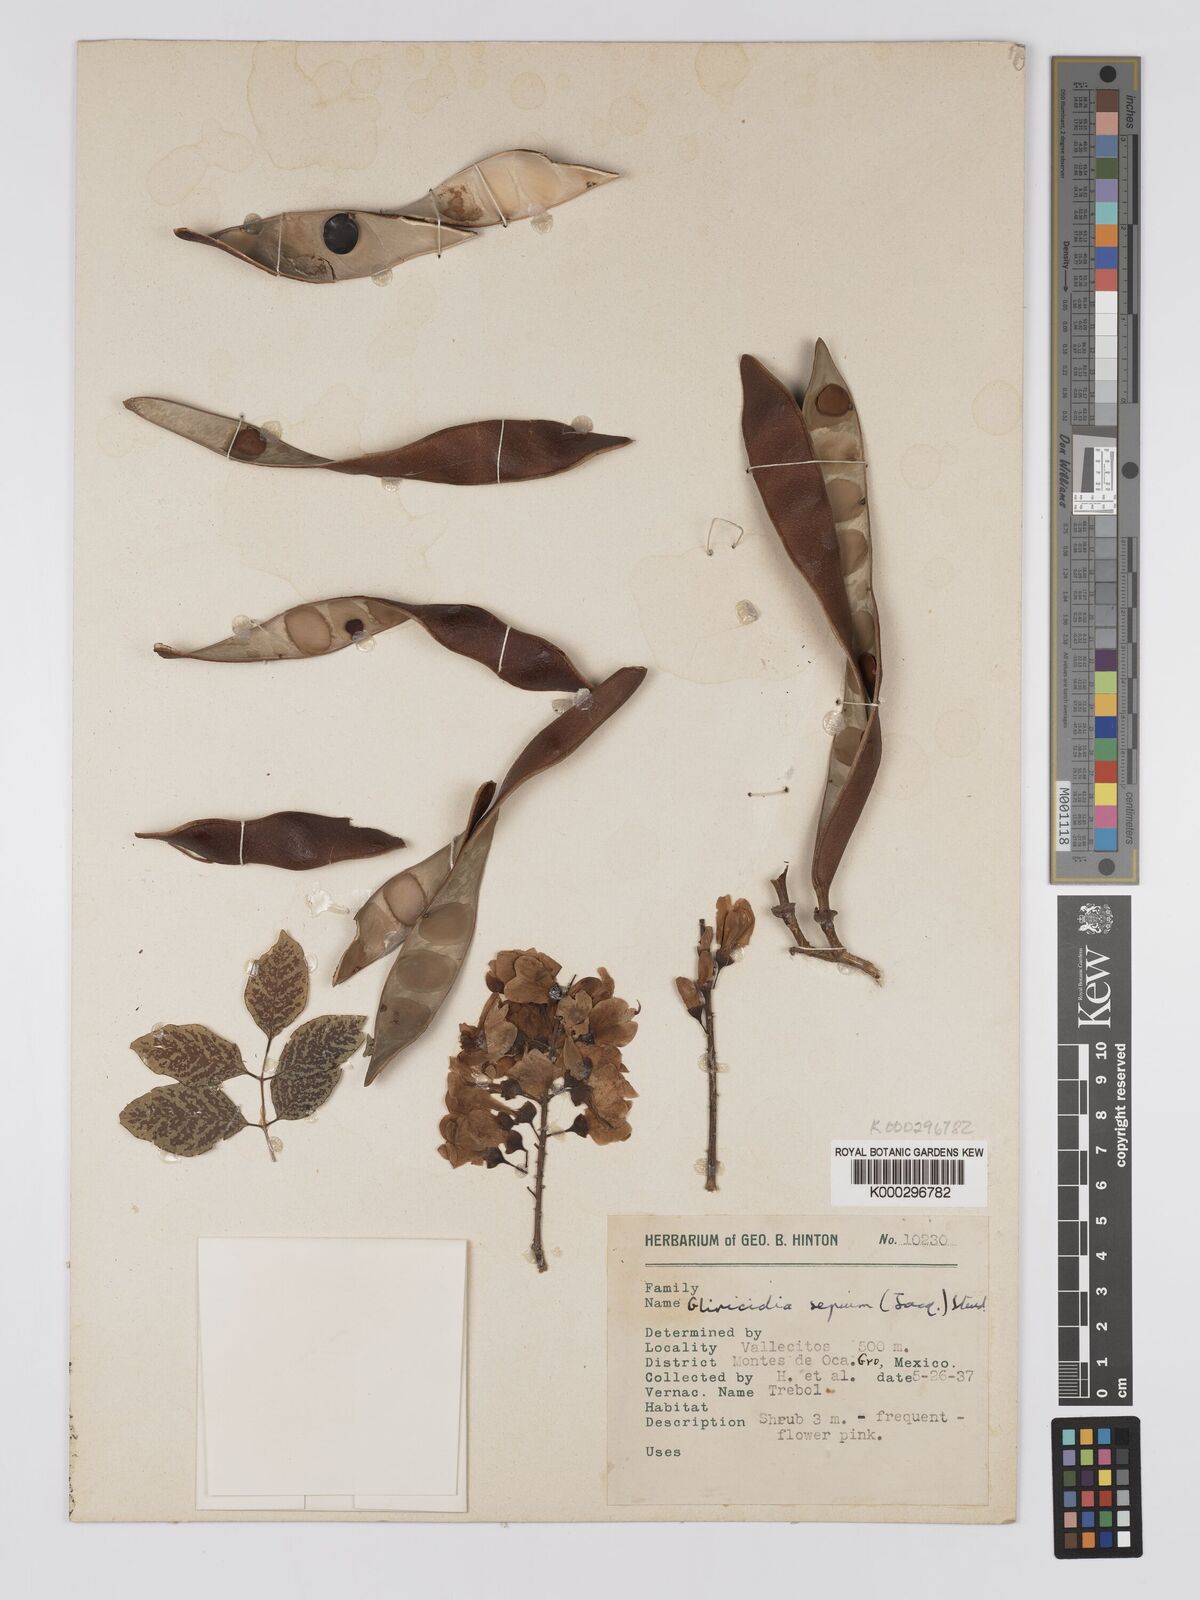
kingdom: Plantae
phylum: Tracheophyta
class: Magnoliopsida
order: Fabales
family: Fabaceae
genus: Gliricidia
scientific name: Gliricidia sepium
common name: Quickstick
